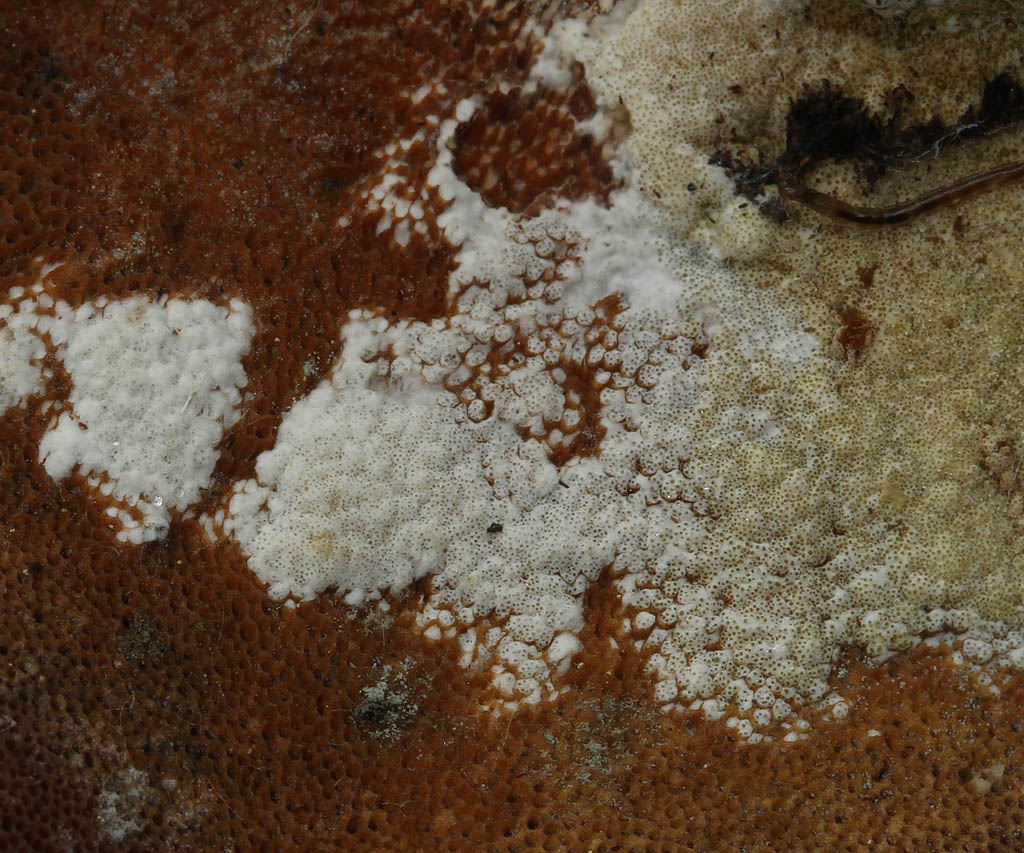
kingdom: Fungi
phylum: Ascomycota
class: Sordariomycetes
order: Hypocreales
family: Hypocreaceae
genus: Trichoderma
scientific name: Trichoderma pulvinatum
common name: snyltende kødkerne
